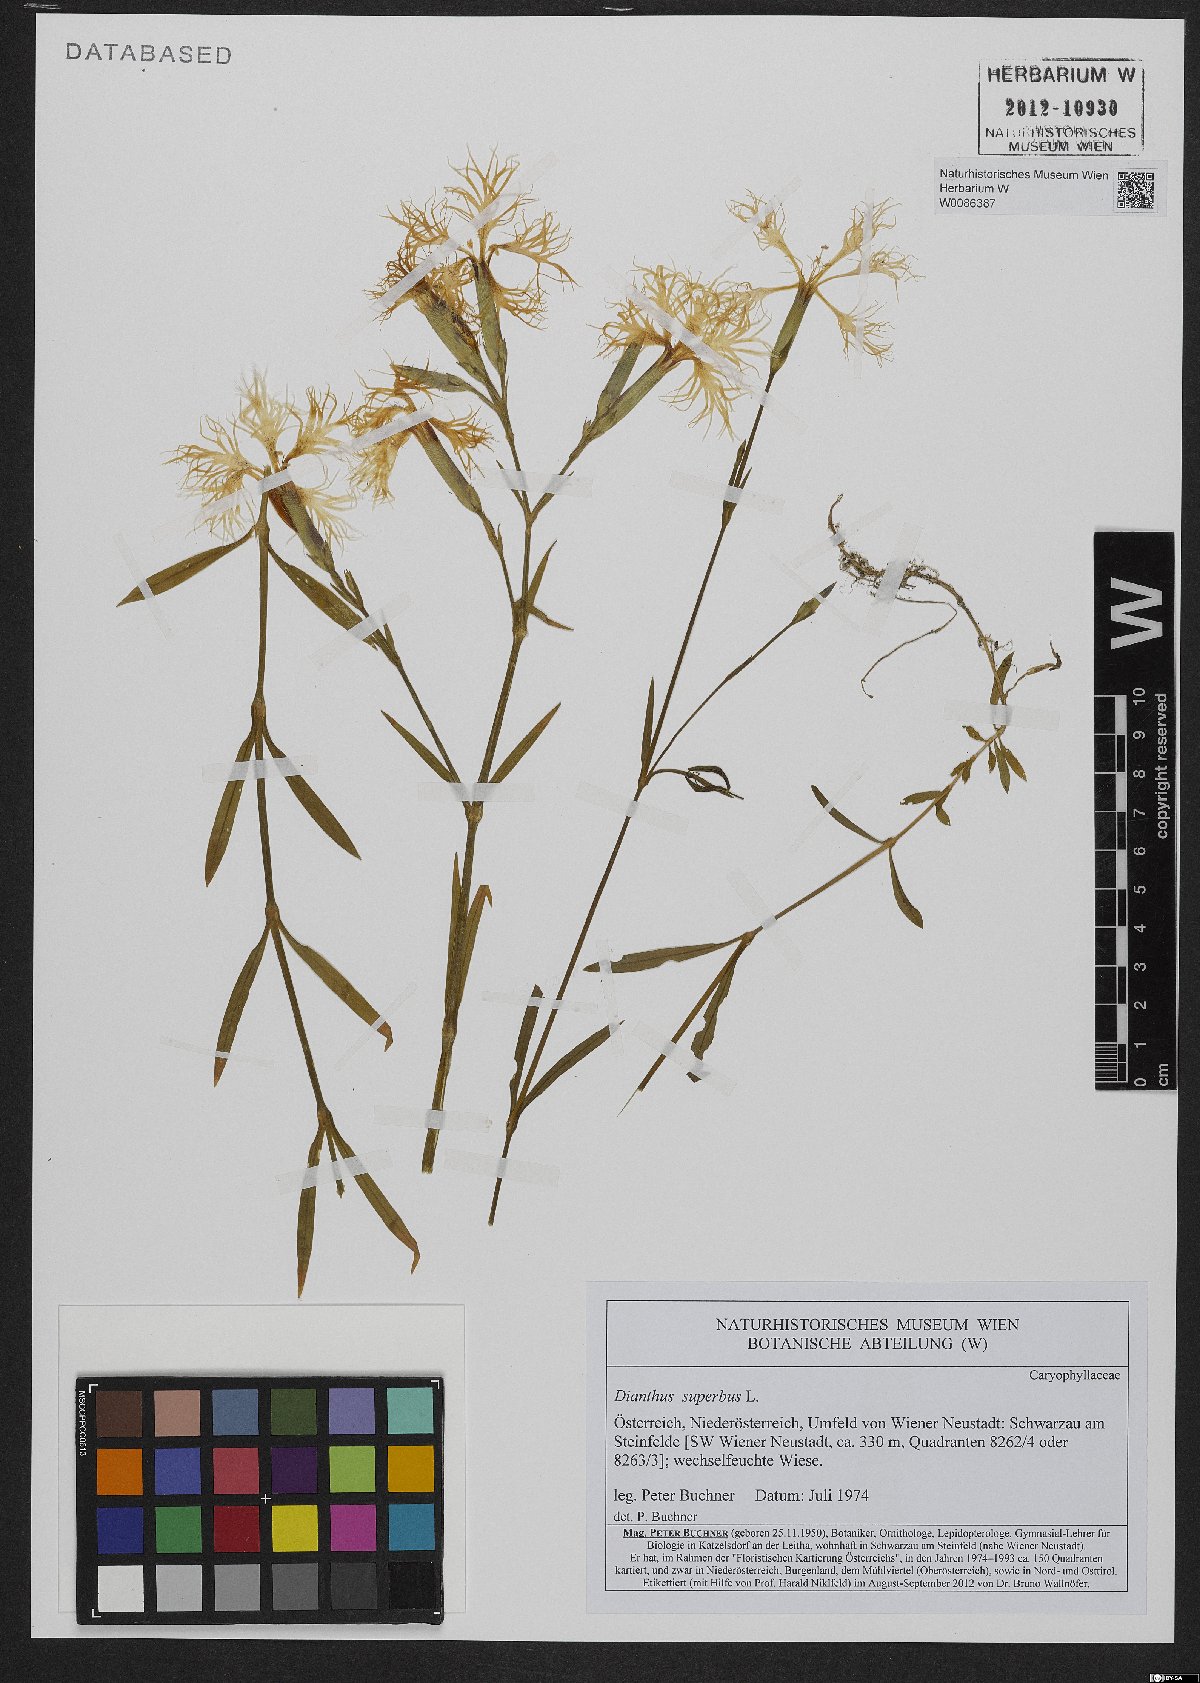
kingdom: Plantae
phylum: Tracheophyta
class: Magnoliopsida
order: Caryophyllales
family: Caryophyllaceae
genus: Dianthus
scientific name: Dianthus superbus
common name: Fringed pink
